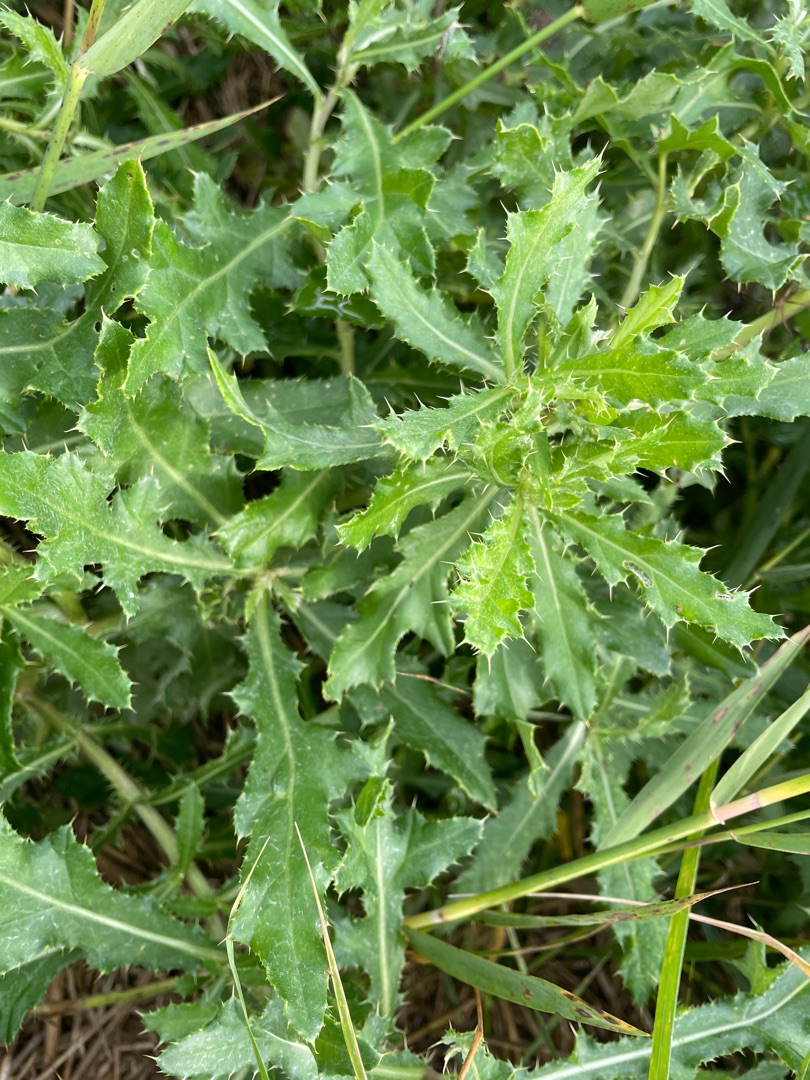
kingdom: Plantae
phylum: Tracheophyta
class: Magnoliopsida
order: Asterales
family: Asteraceae
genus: Cirsium
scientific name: Cirsium arvense
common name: Ager-tidsel
